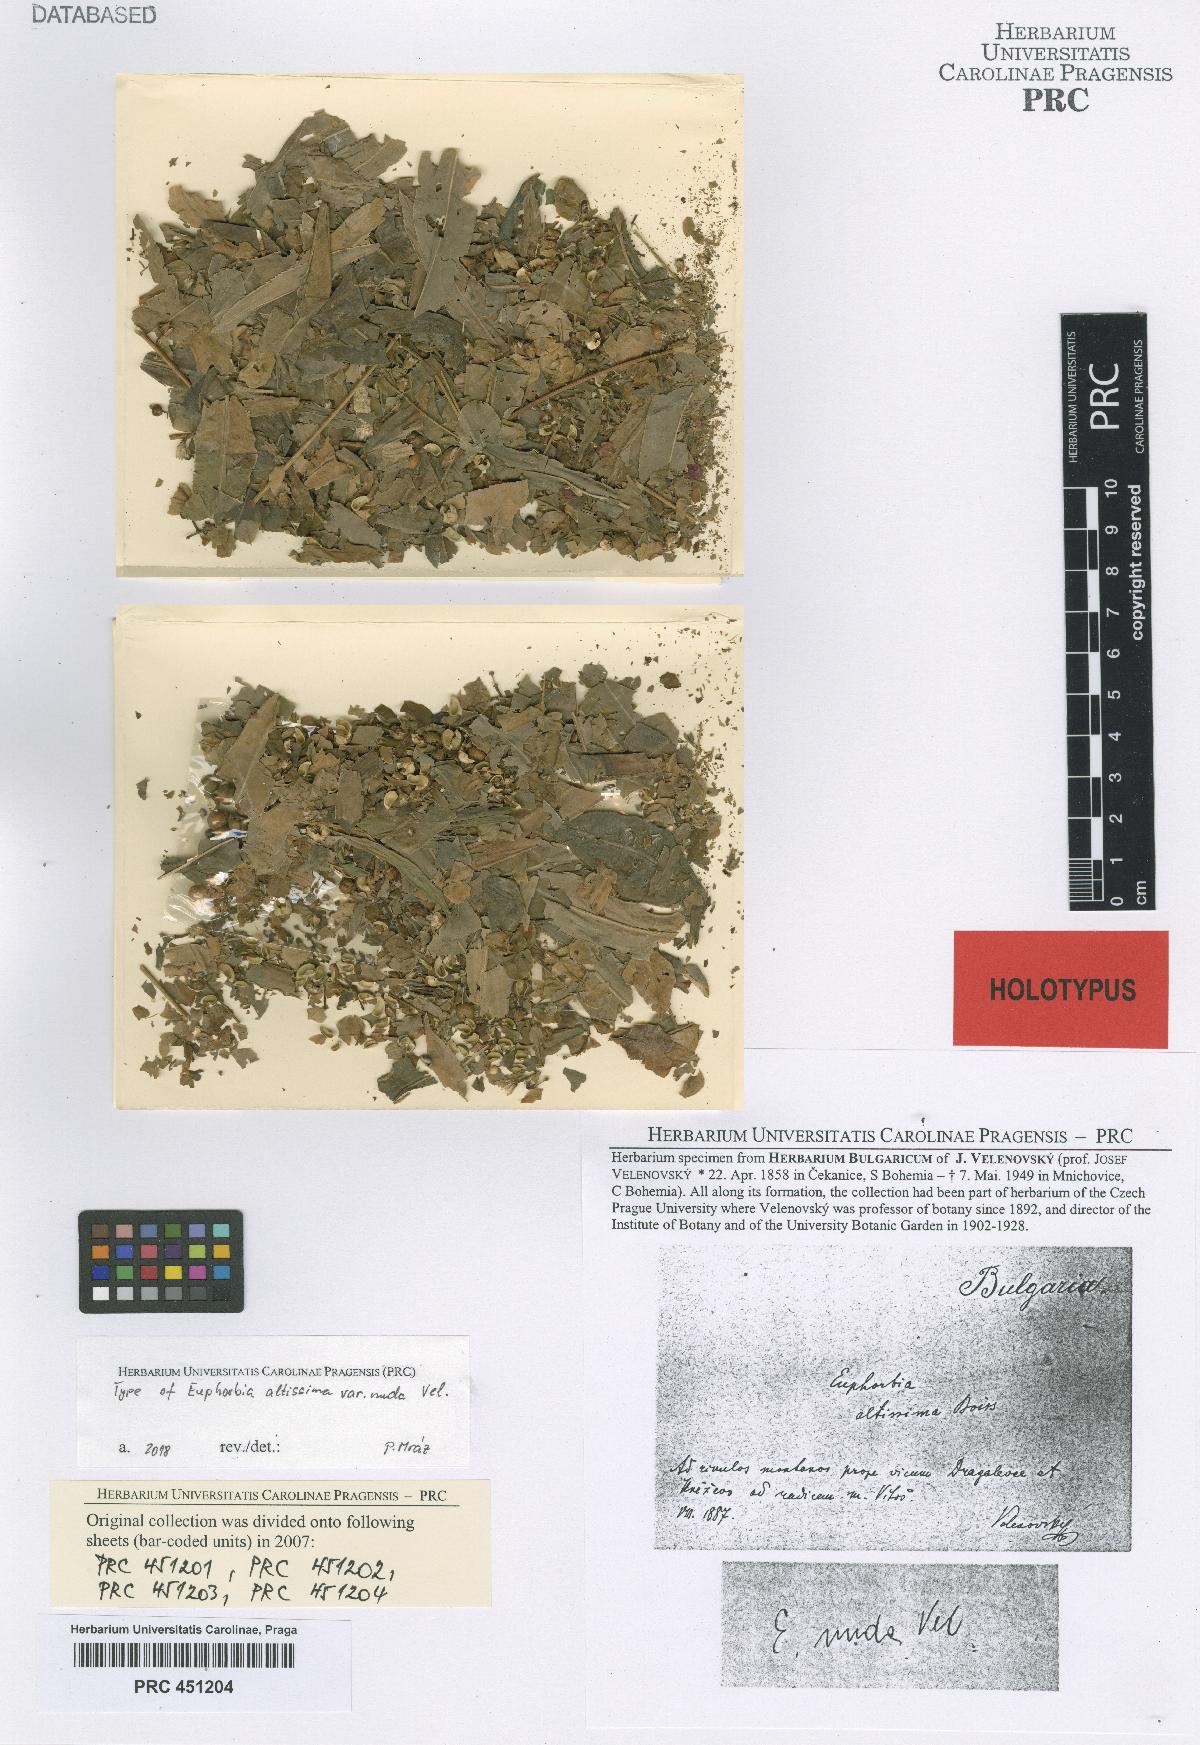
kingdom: Plantae
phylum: Tracheophyta
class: Magnoliopsida
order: Malpighiales
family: Euphorbiaceae
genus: Euphorbia
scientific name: Euphorbia altissima
